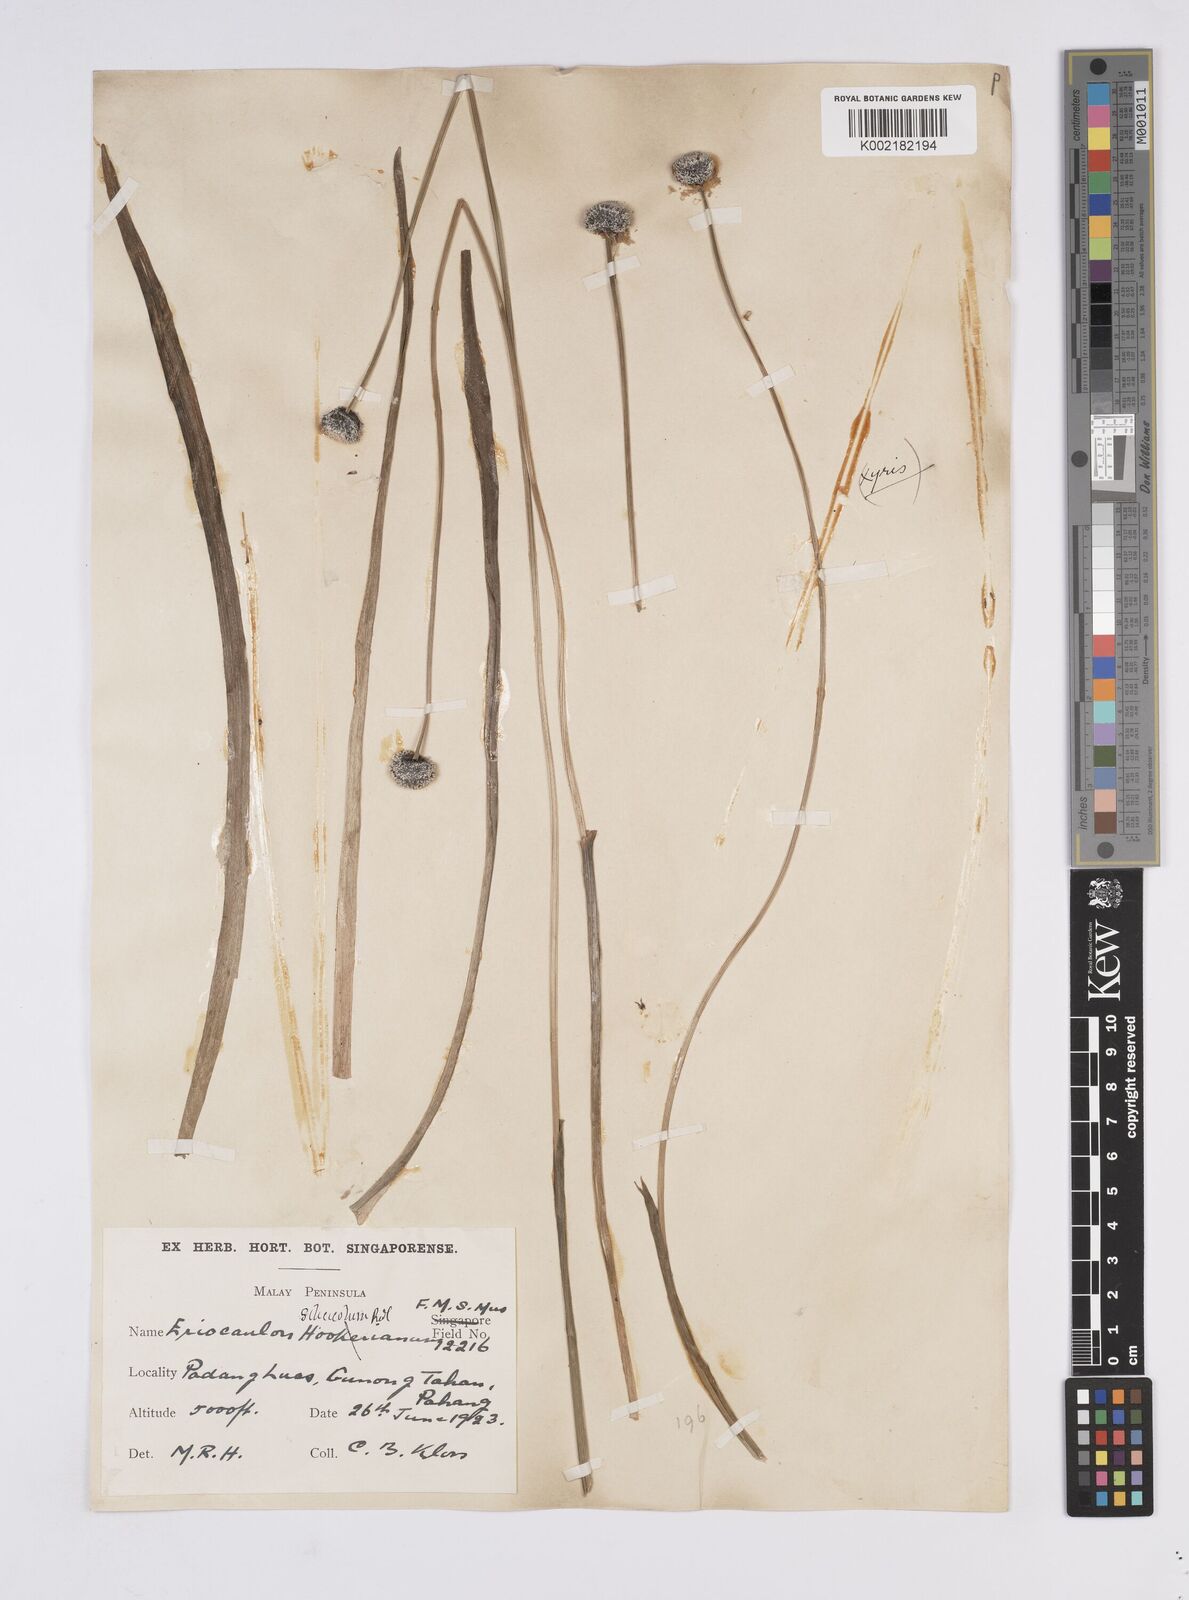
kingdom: Plantae
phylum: Tracheophyta
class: Liliopsida
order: Poales
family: Eriocaulaceae
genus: Eriocaulon
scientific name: Eriocaulon silicicola
